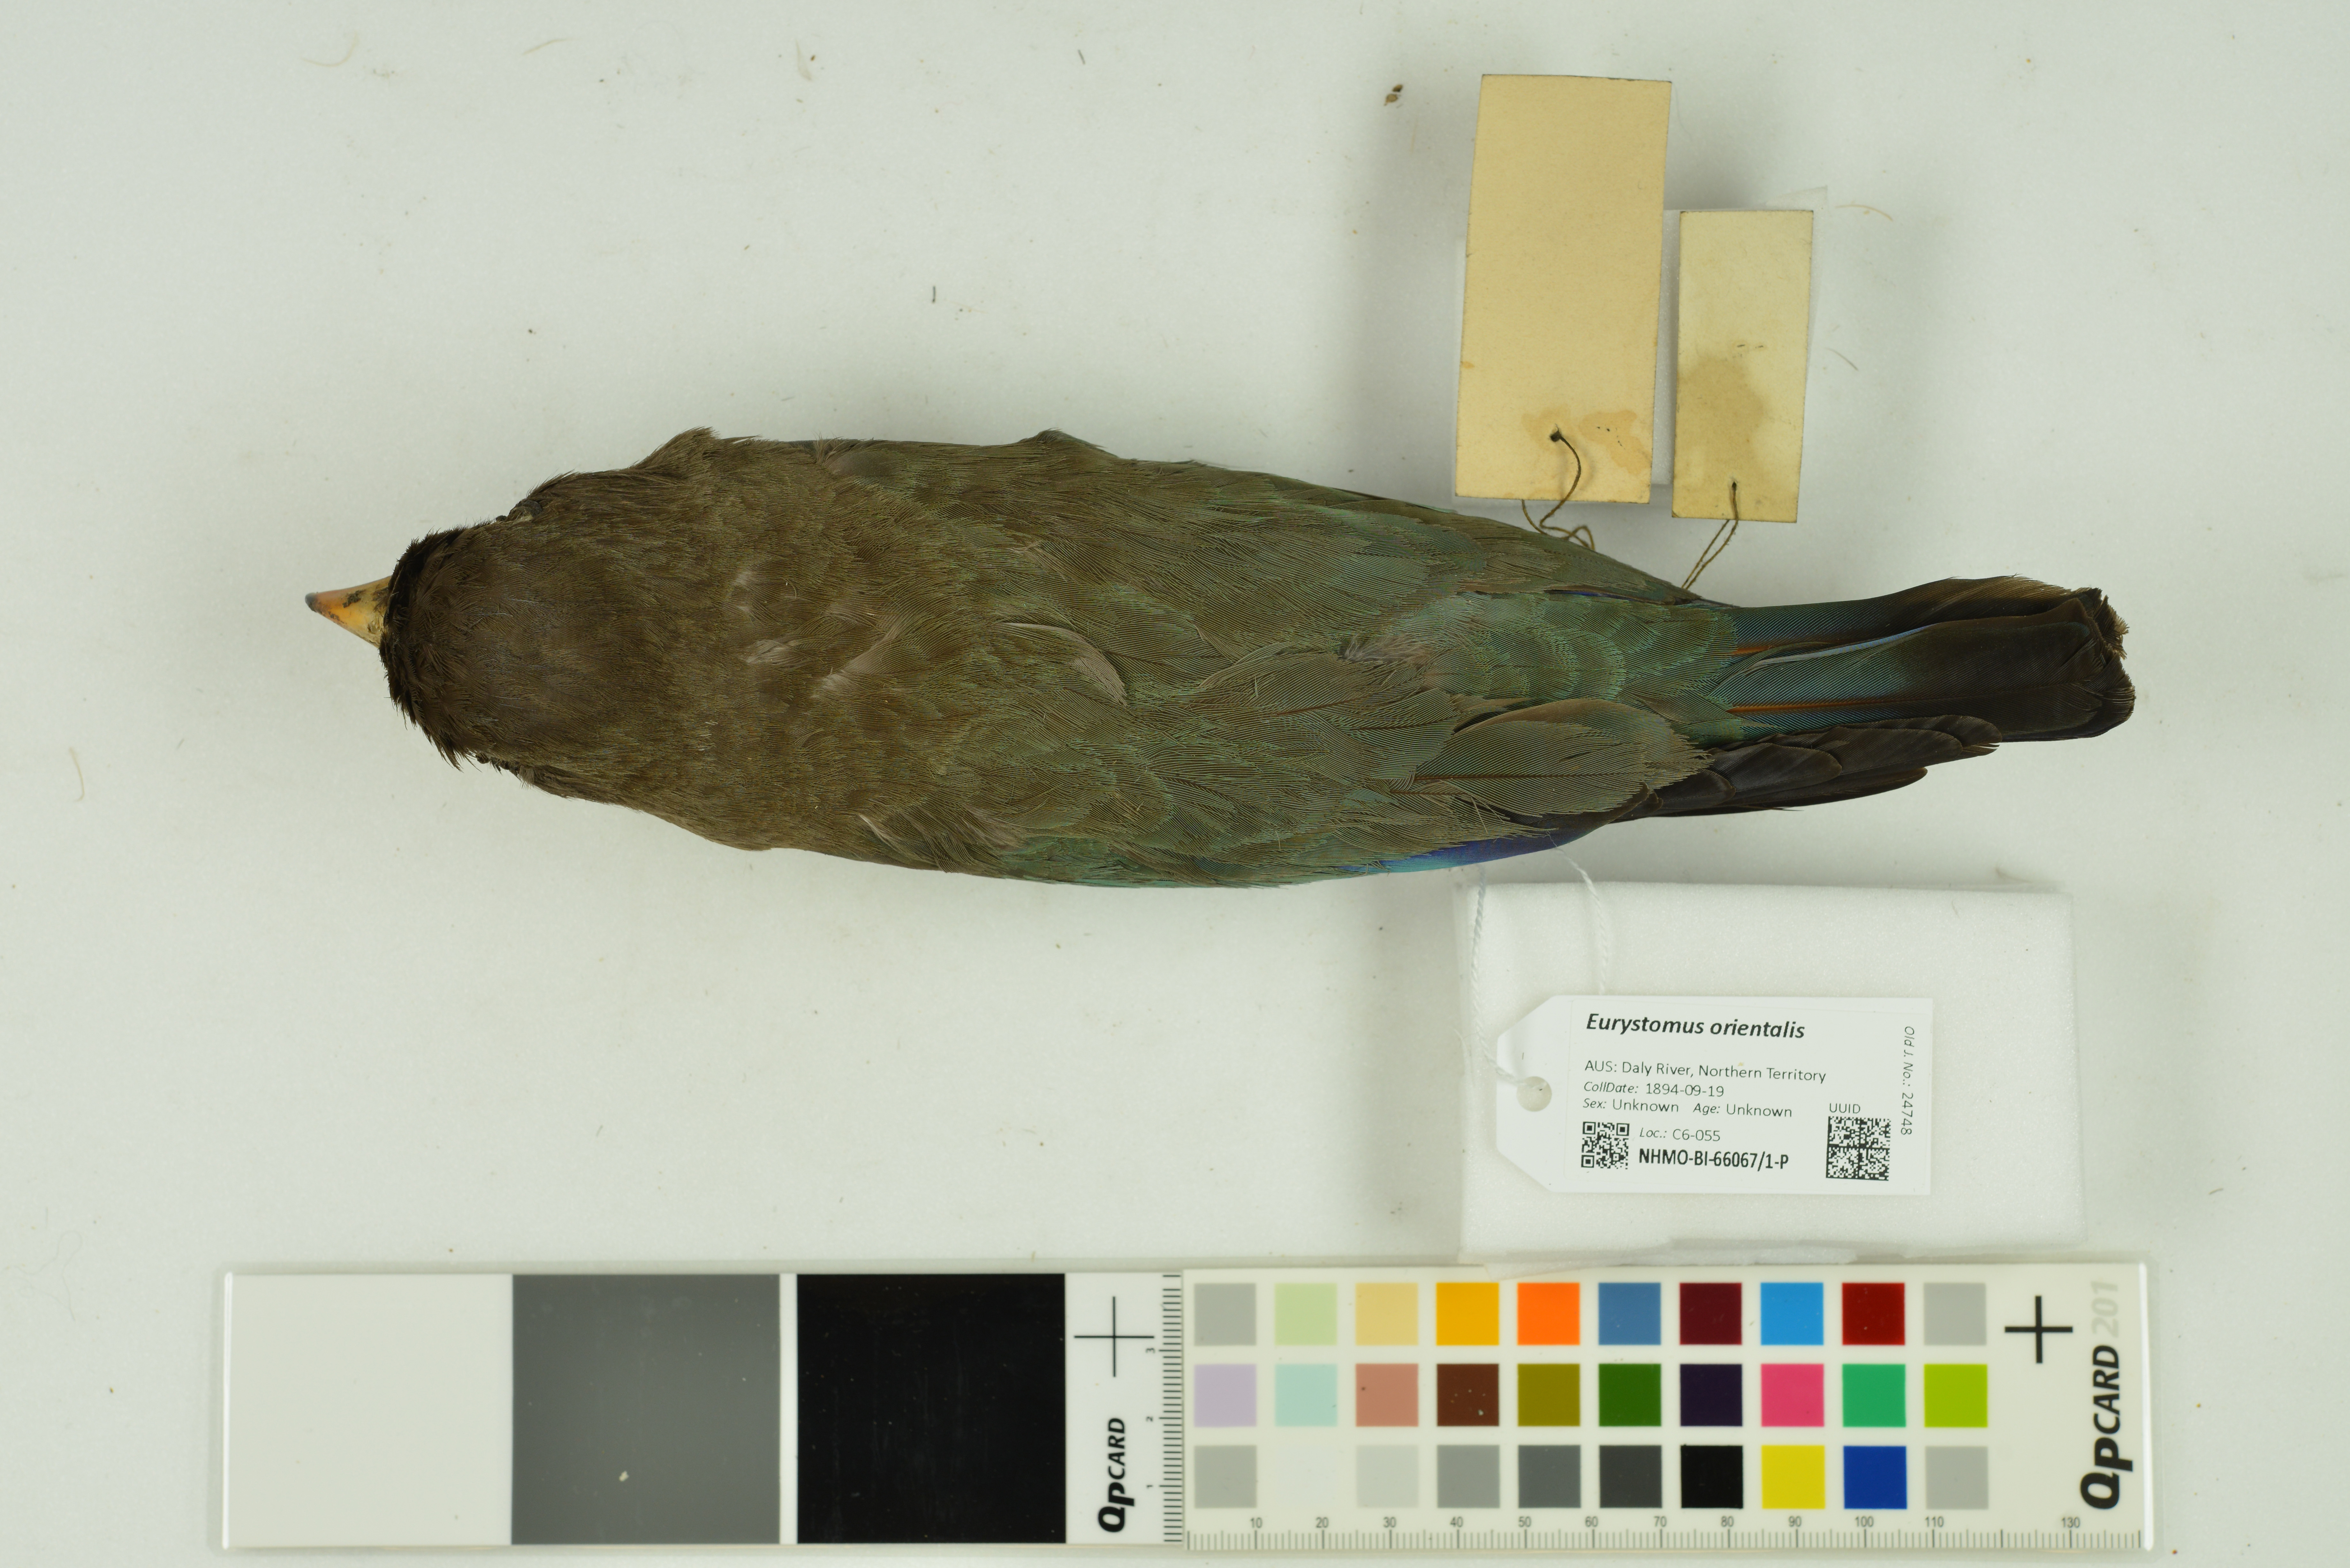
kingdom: Animalia
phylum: Chordata
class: Aves
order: Coraciiformes
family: Coraciidae
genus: Eurystomus
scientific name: Eurystomus orientalis
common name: Oriental dollarbird
